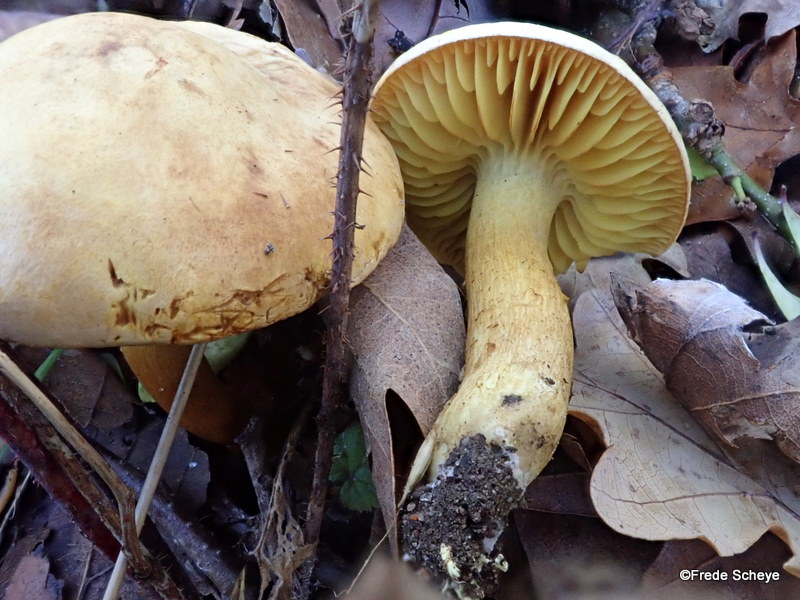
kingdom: Fungi
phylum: Basidiomycota
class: Agaricomycetes
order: Agaricales
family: Tricholomataceae
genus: Tricholoma
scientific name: Tricholoma sulphureum
